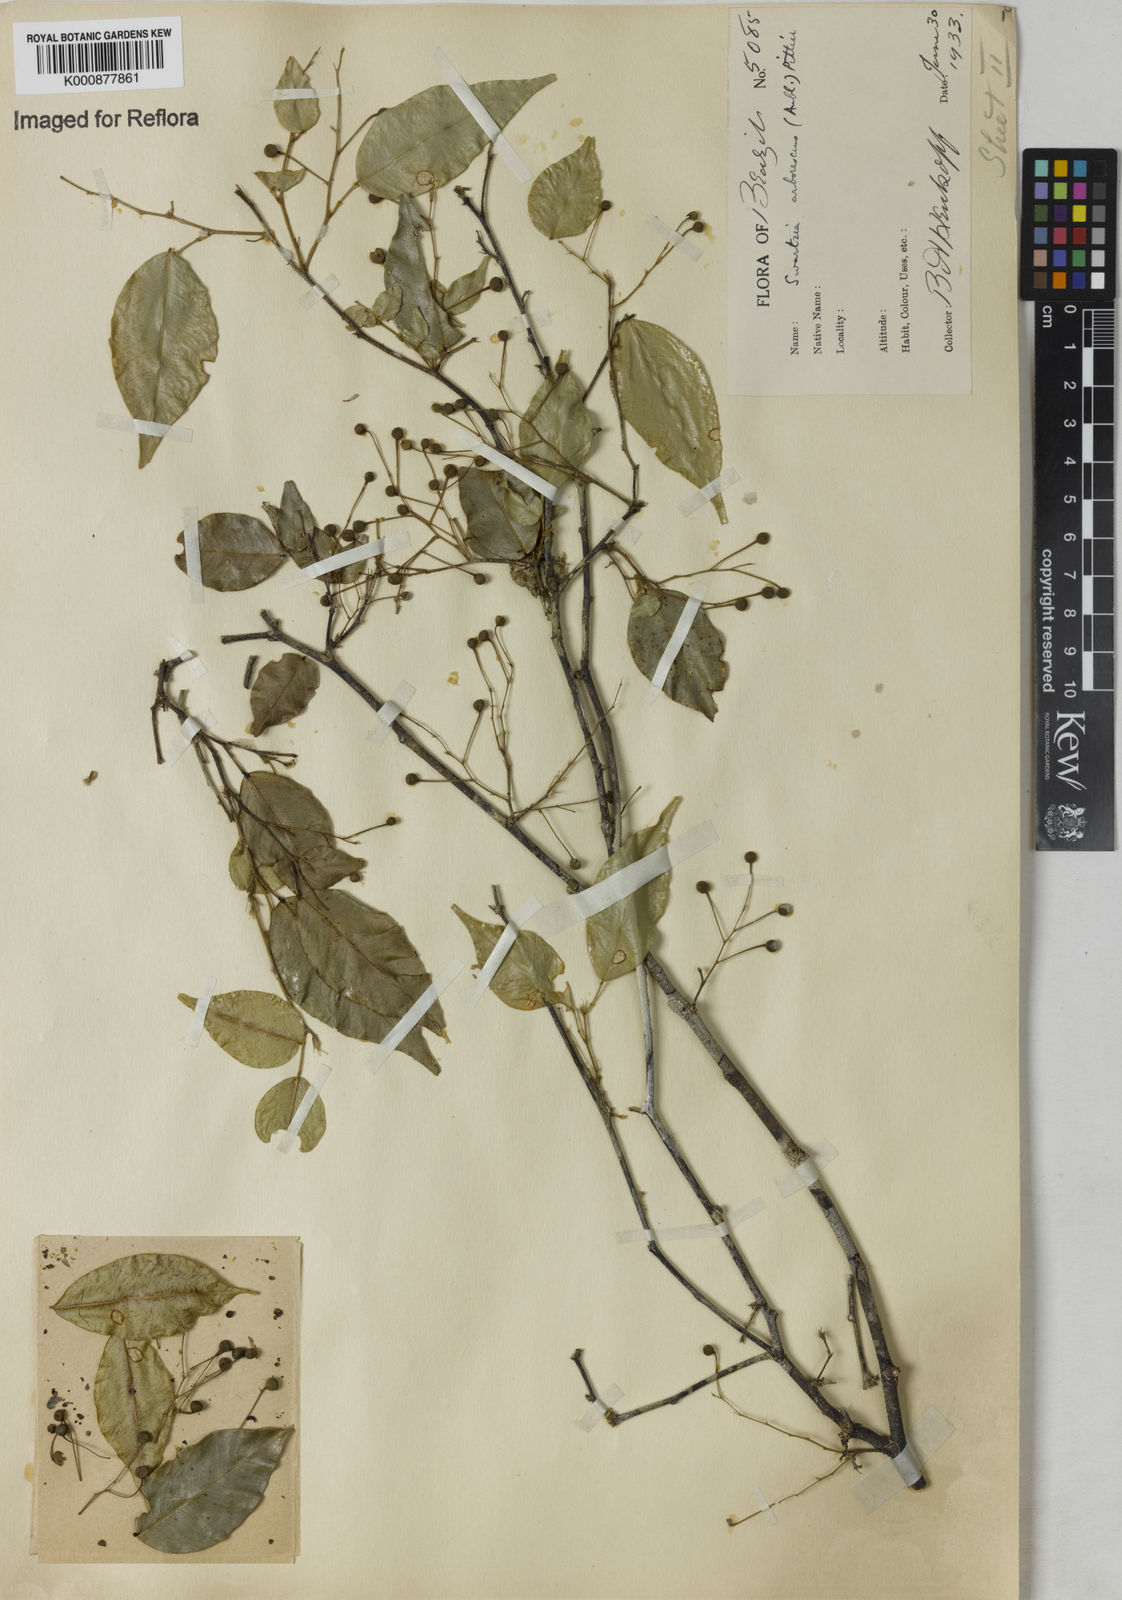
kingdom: Plantae
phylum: Tracheophyta
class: Magnoliopsida
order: Fabales
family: Fabaceae
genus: Swartzia
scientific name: Swartzia arborescens
